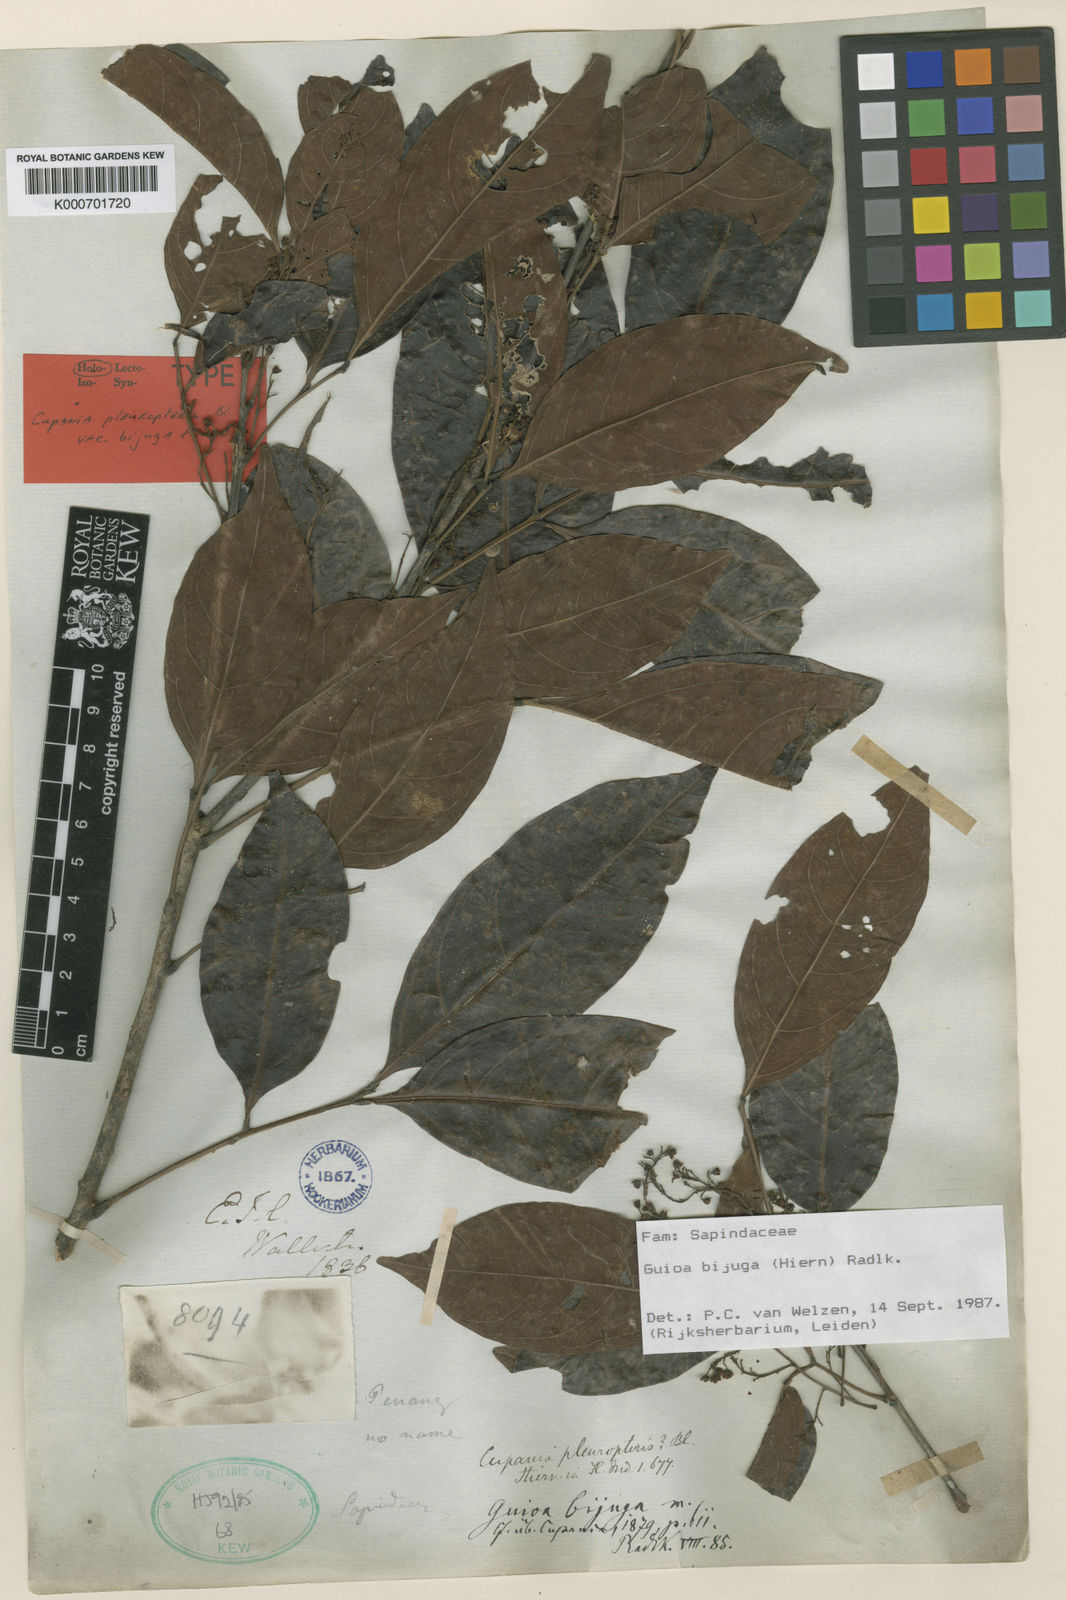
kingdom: Plantae
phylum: Tracheophyta
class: Magnoliopsida
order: Sapindales
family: Sapindaceae
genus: Guioa
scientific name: Guioa bijuga
